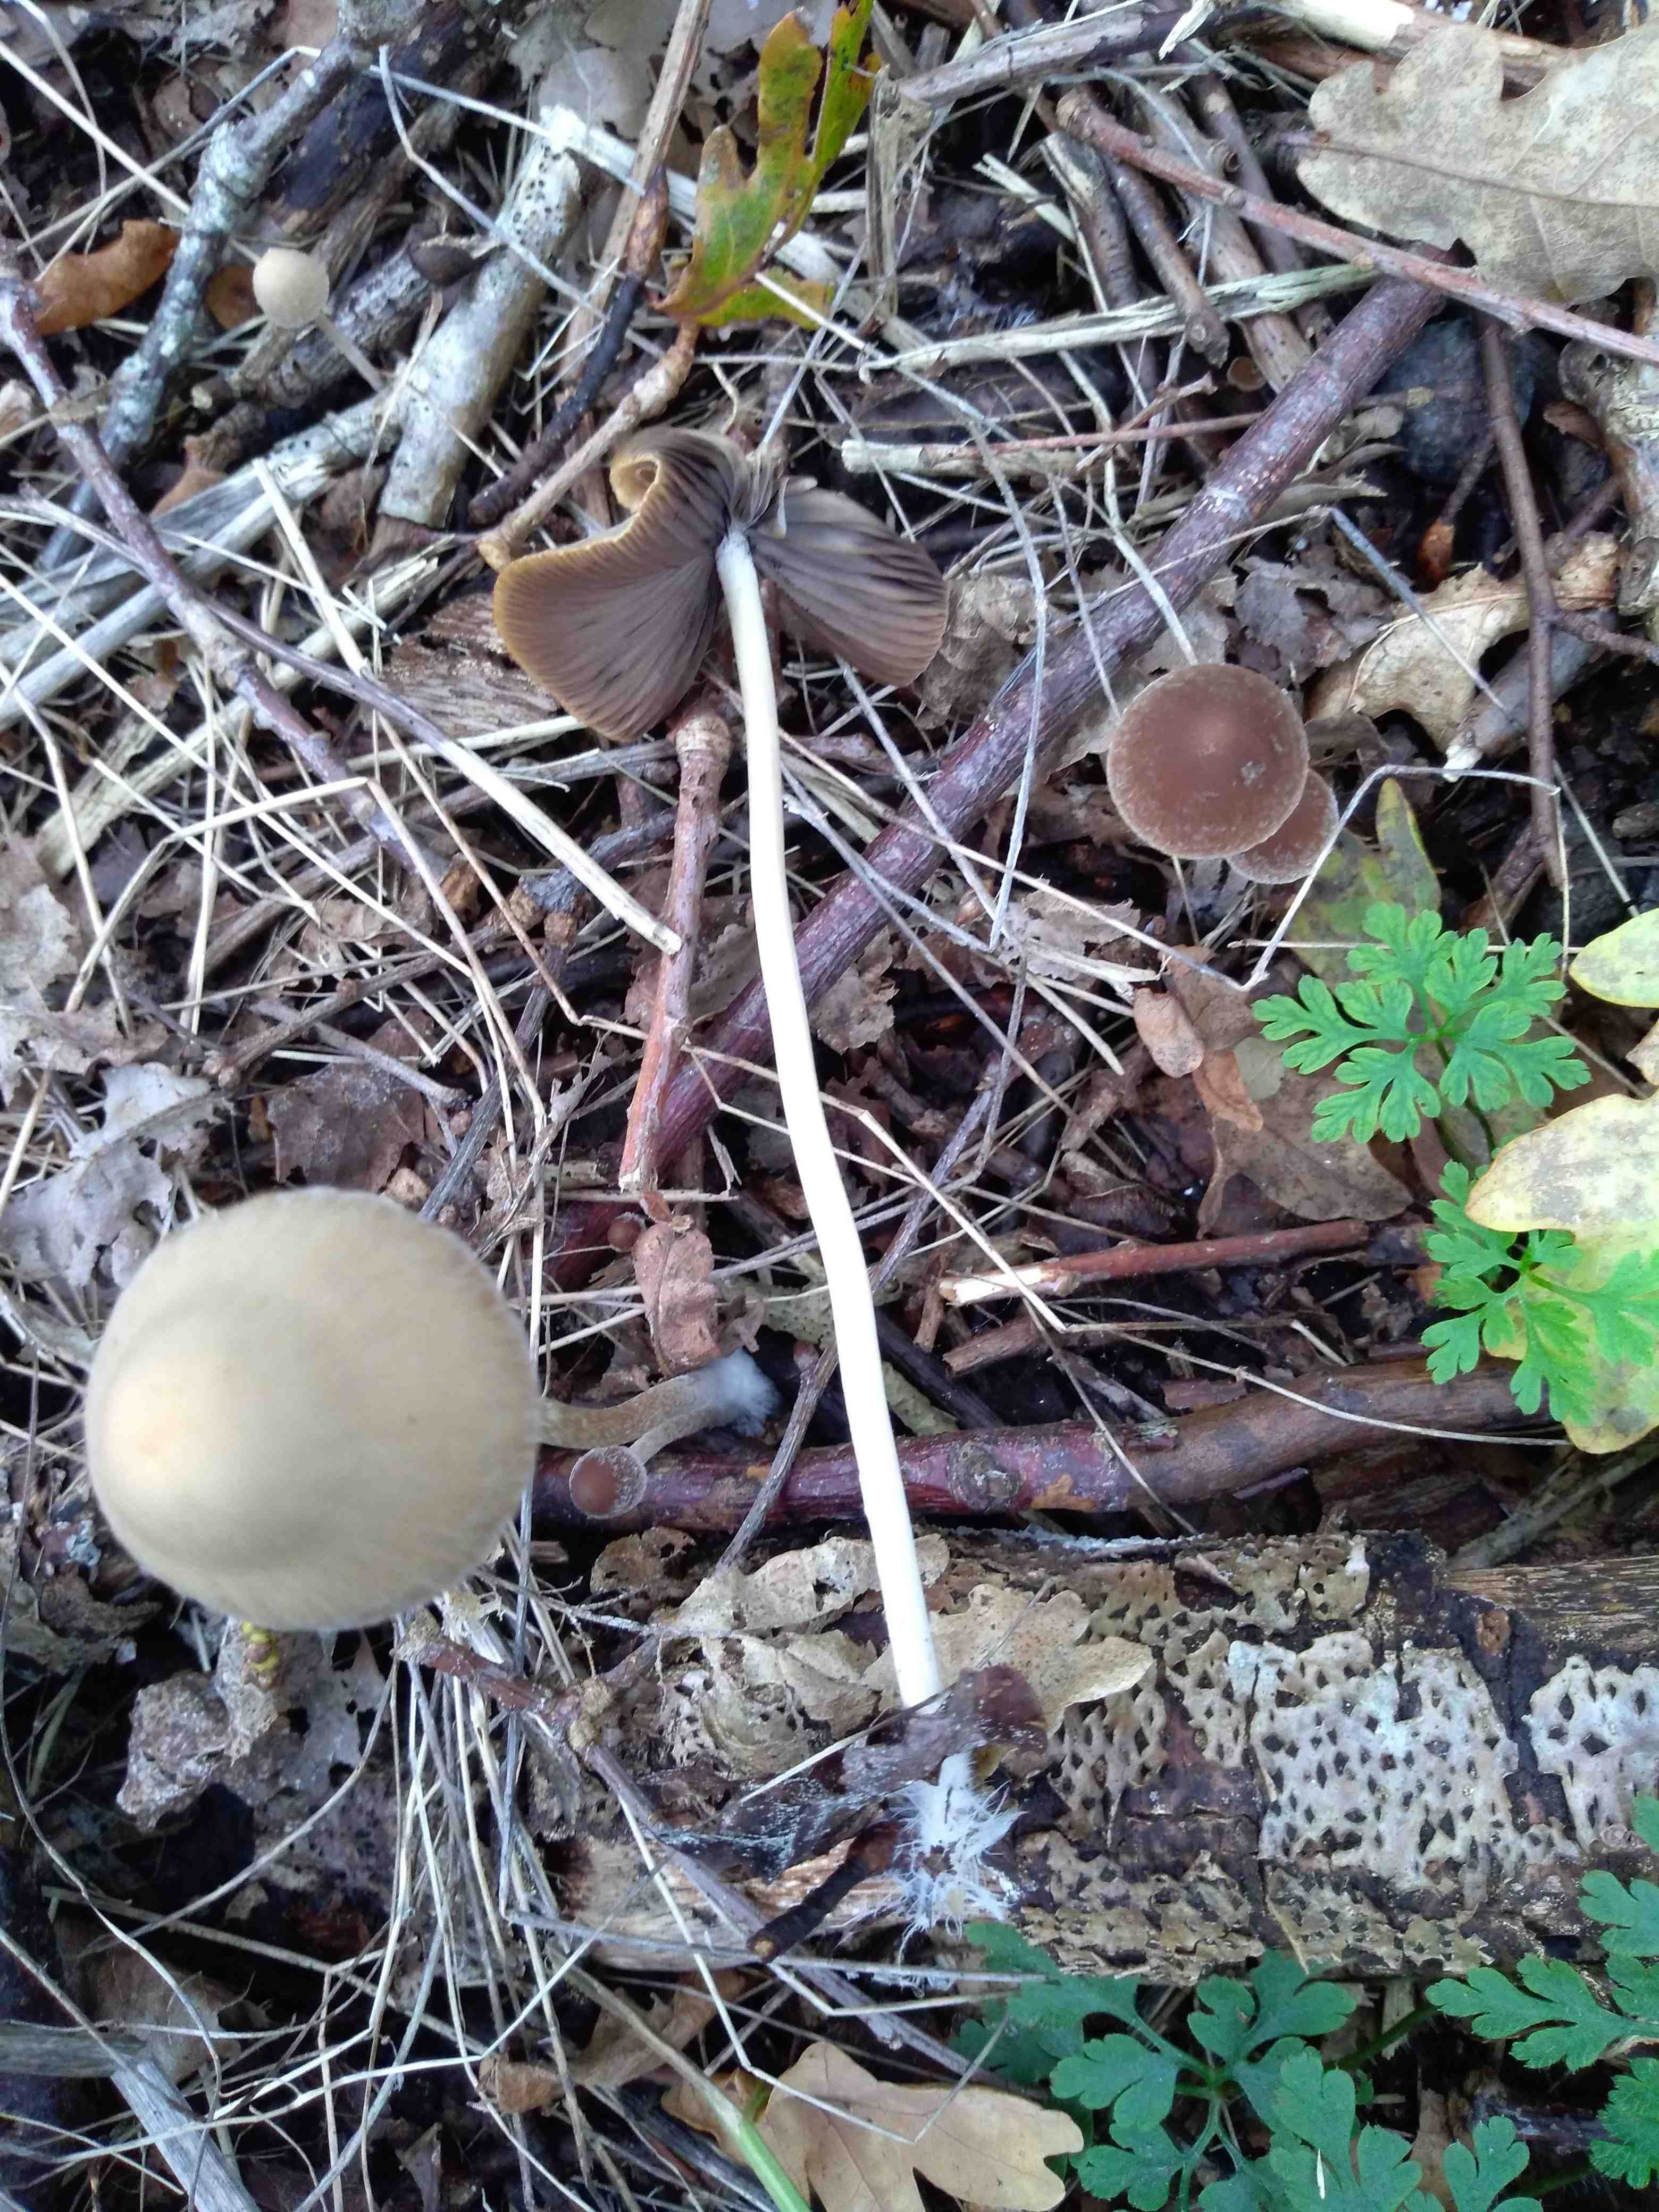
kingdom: Fungi
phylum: Basidiomycota
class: Agaricomycetes
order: Agaricales
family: Psathyrellaceae
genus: Psathyrella
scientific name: Psathyrella
